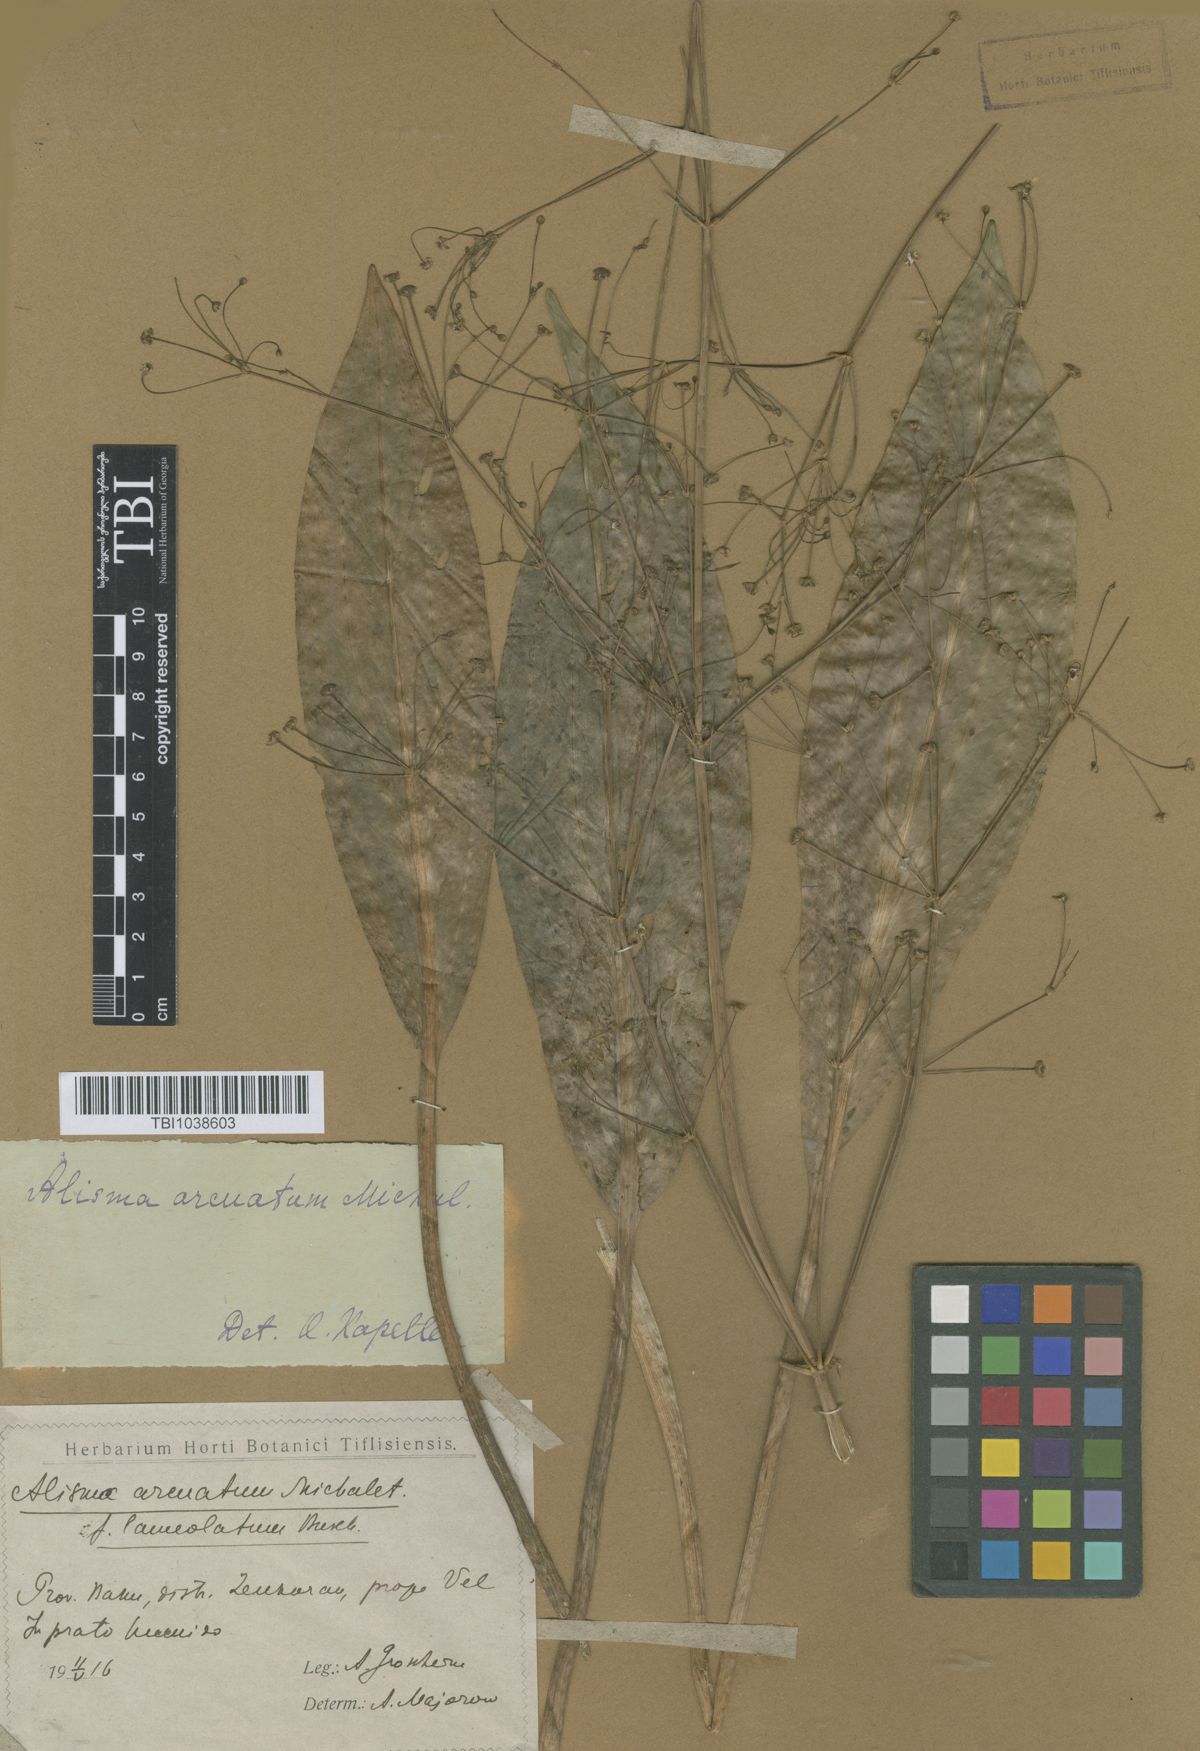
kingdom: Plantae
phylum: Tracheophyta
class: Liliopsida
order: Alismatales
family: Alismataceae
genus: Alisma
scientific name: Alisma gramineum
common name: Ribbon-leaved water-plantain
